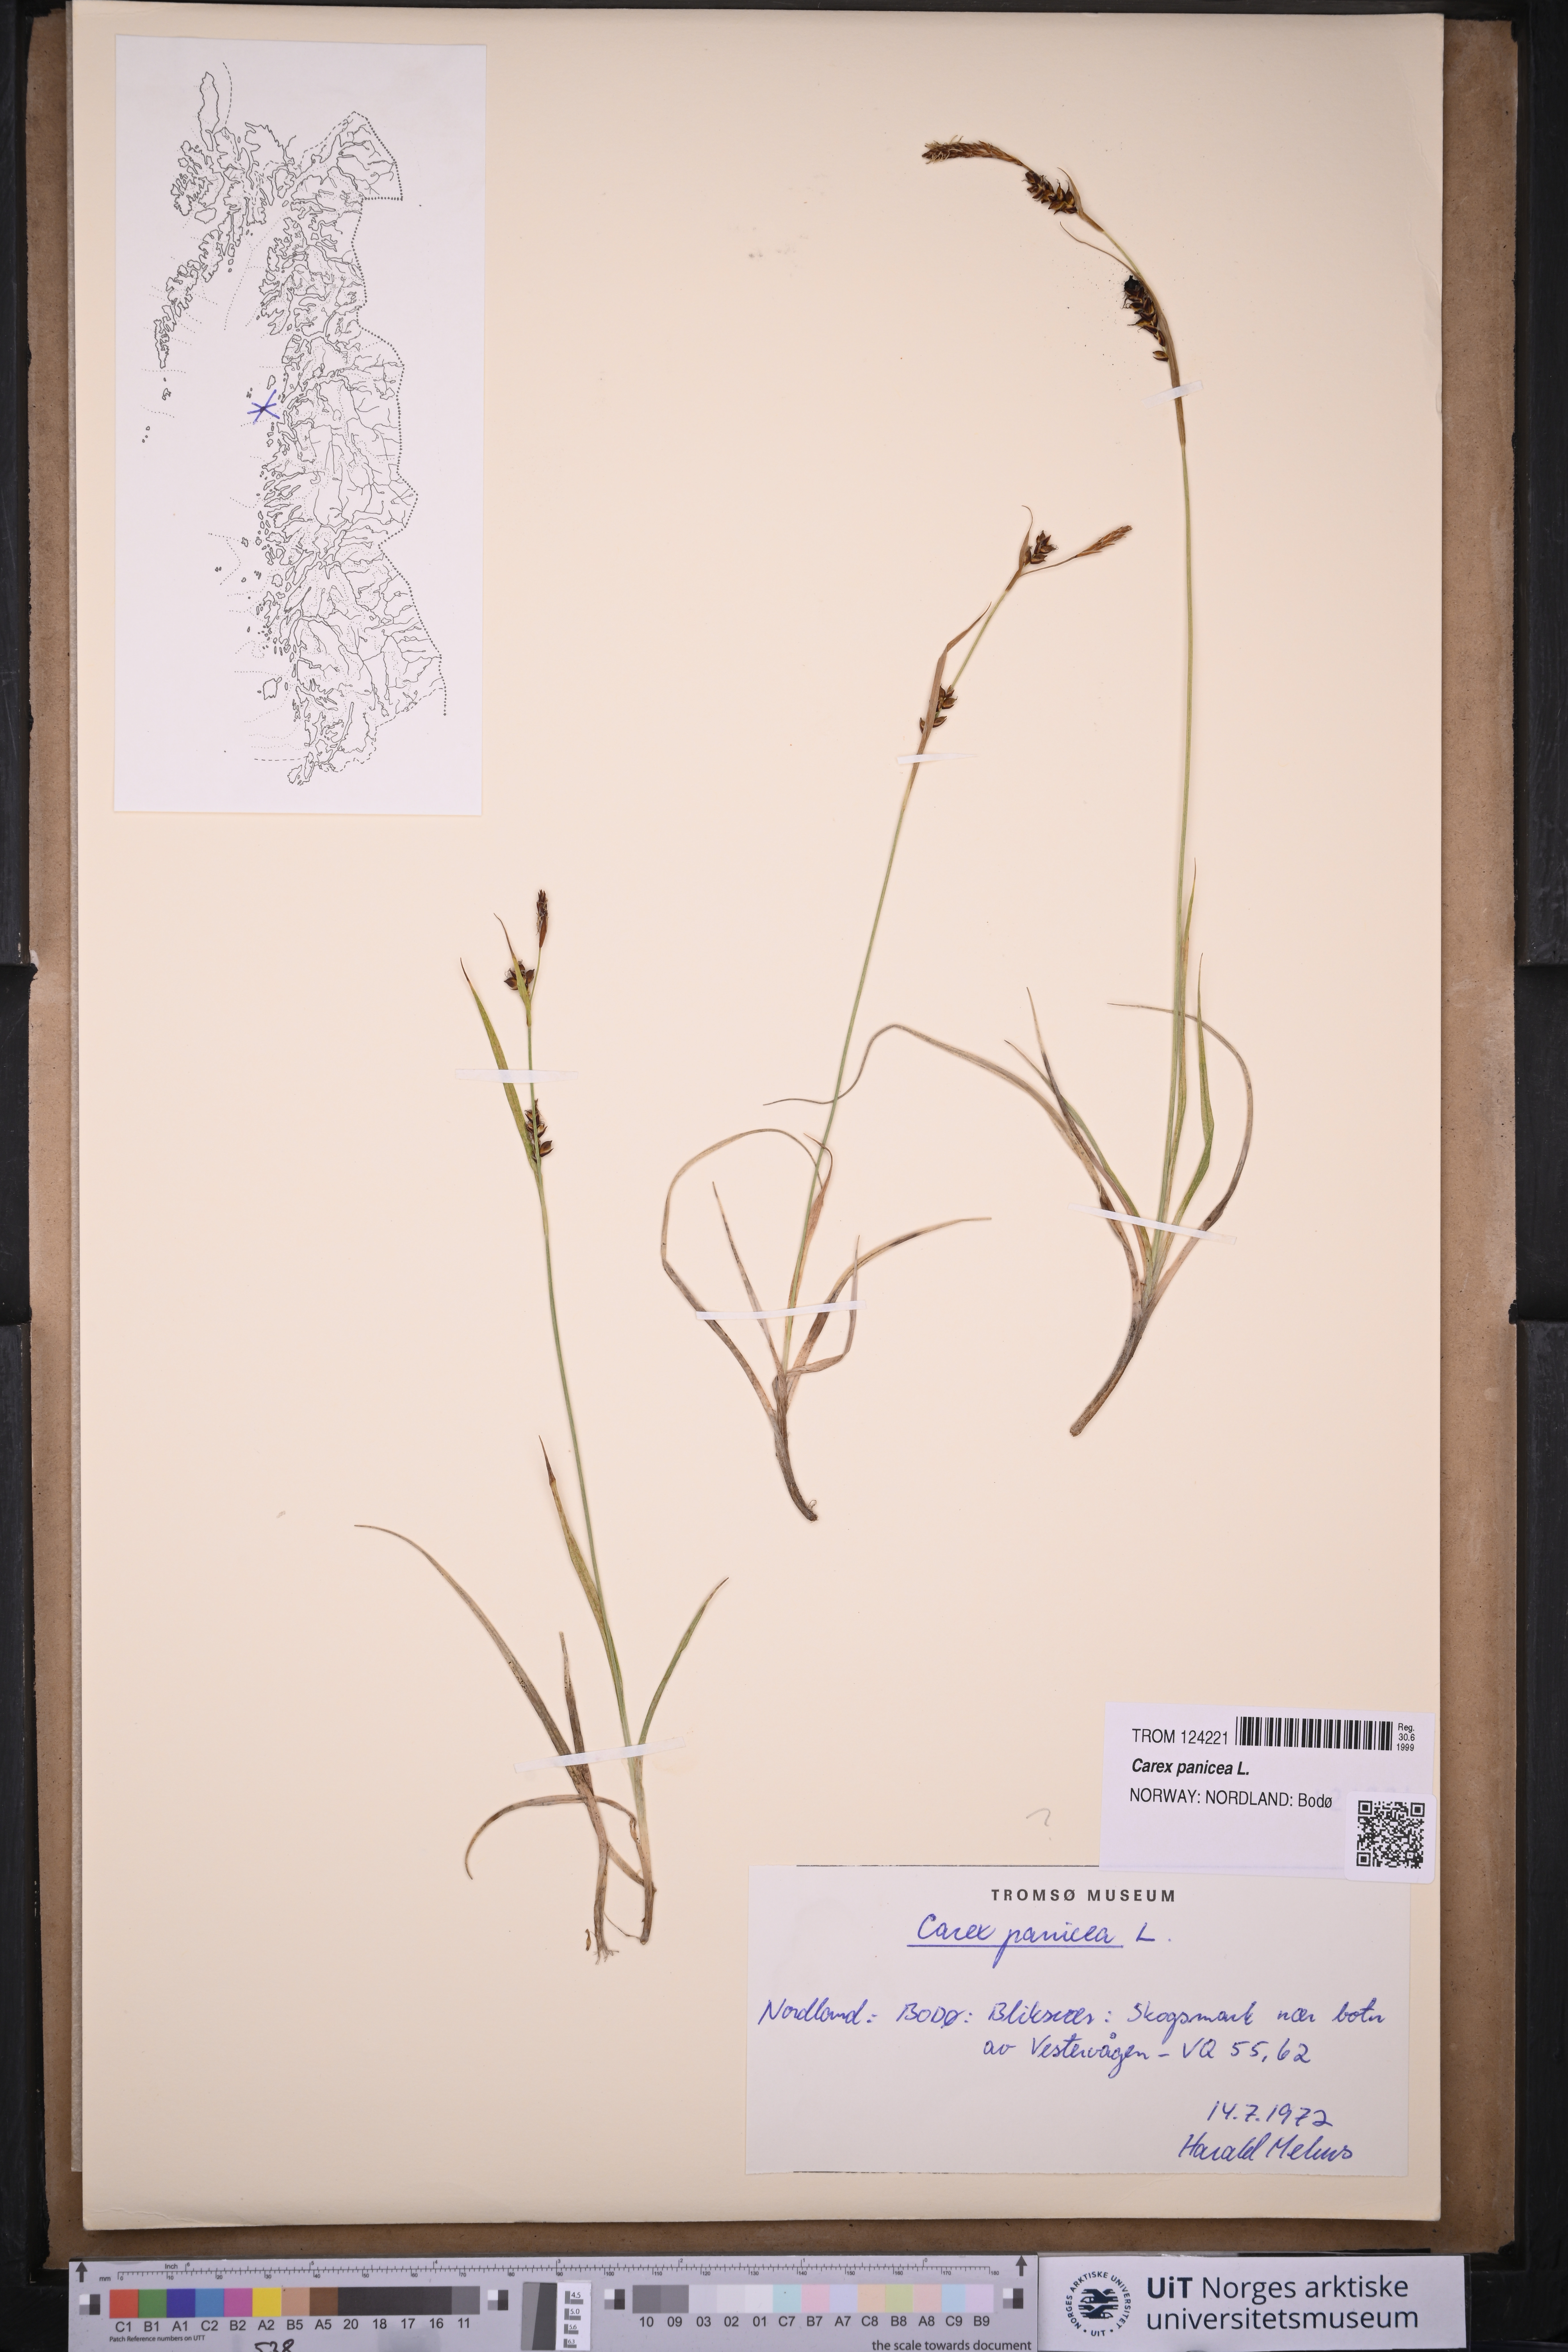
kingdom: Plantae
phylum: Tracheophyta
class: Liliopsida
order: Poales
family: Cyperaceae
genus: Carex
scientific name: Carex panicea
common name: Carnation sedge
